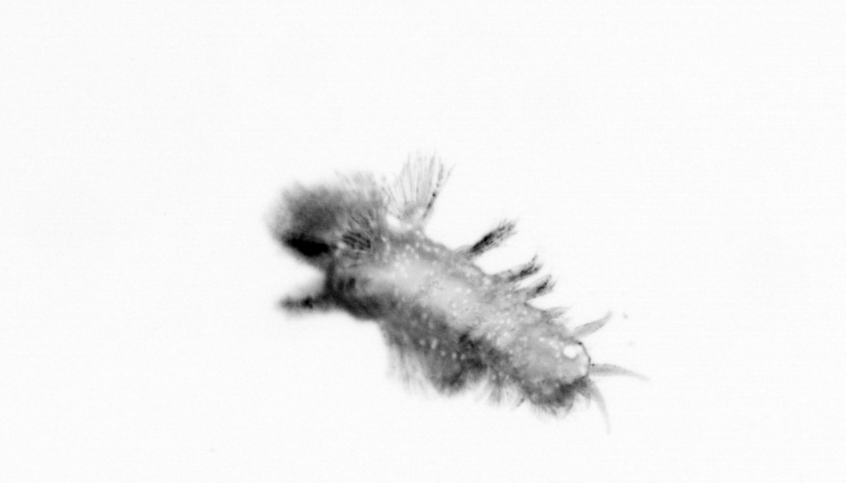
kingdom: Animalia
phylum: Annelida
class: Polychaeta
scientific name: Polychaeta
